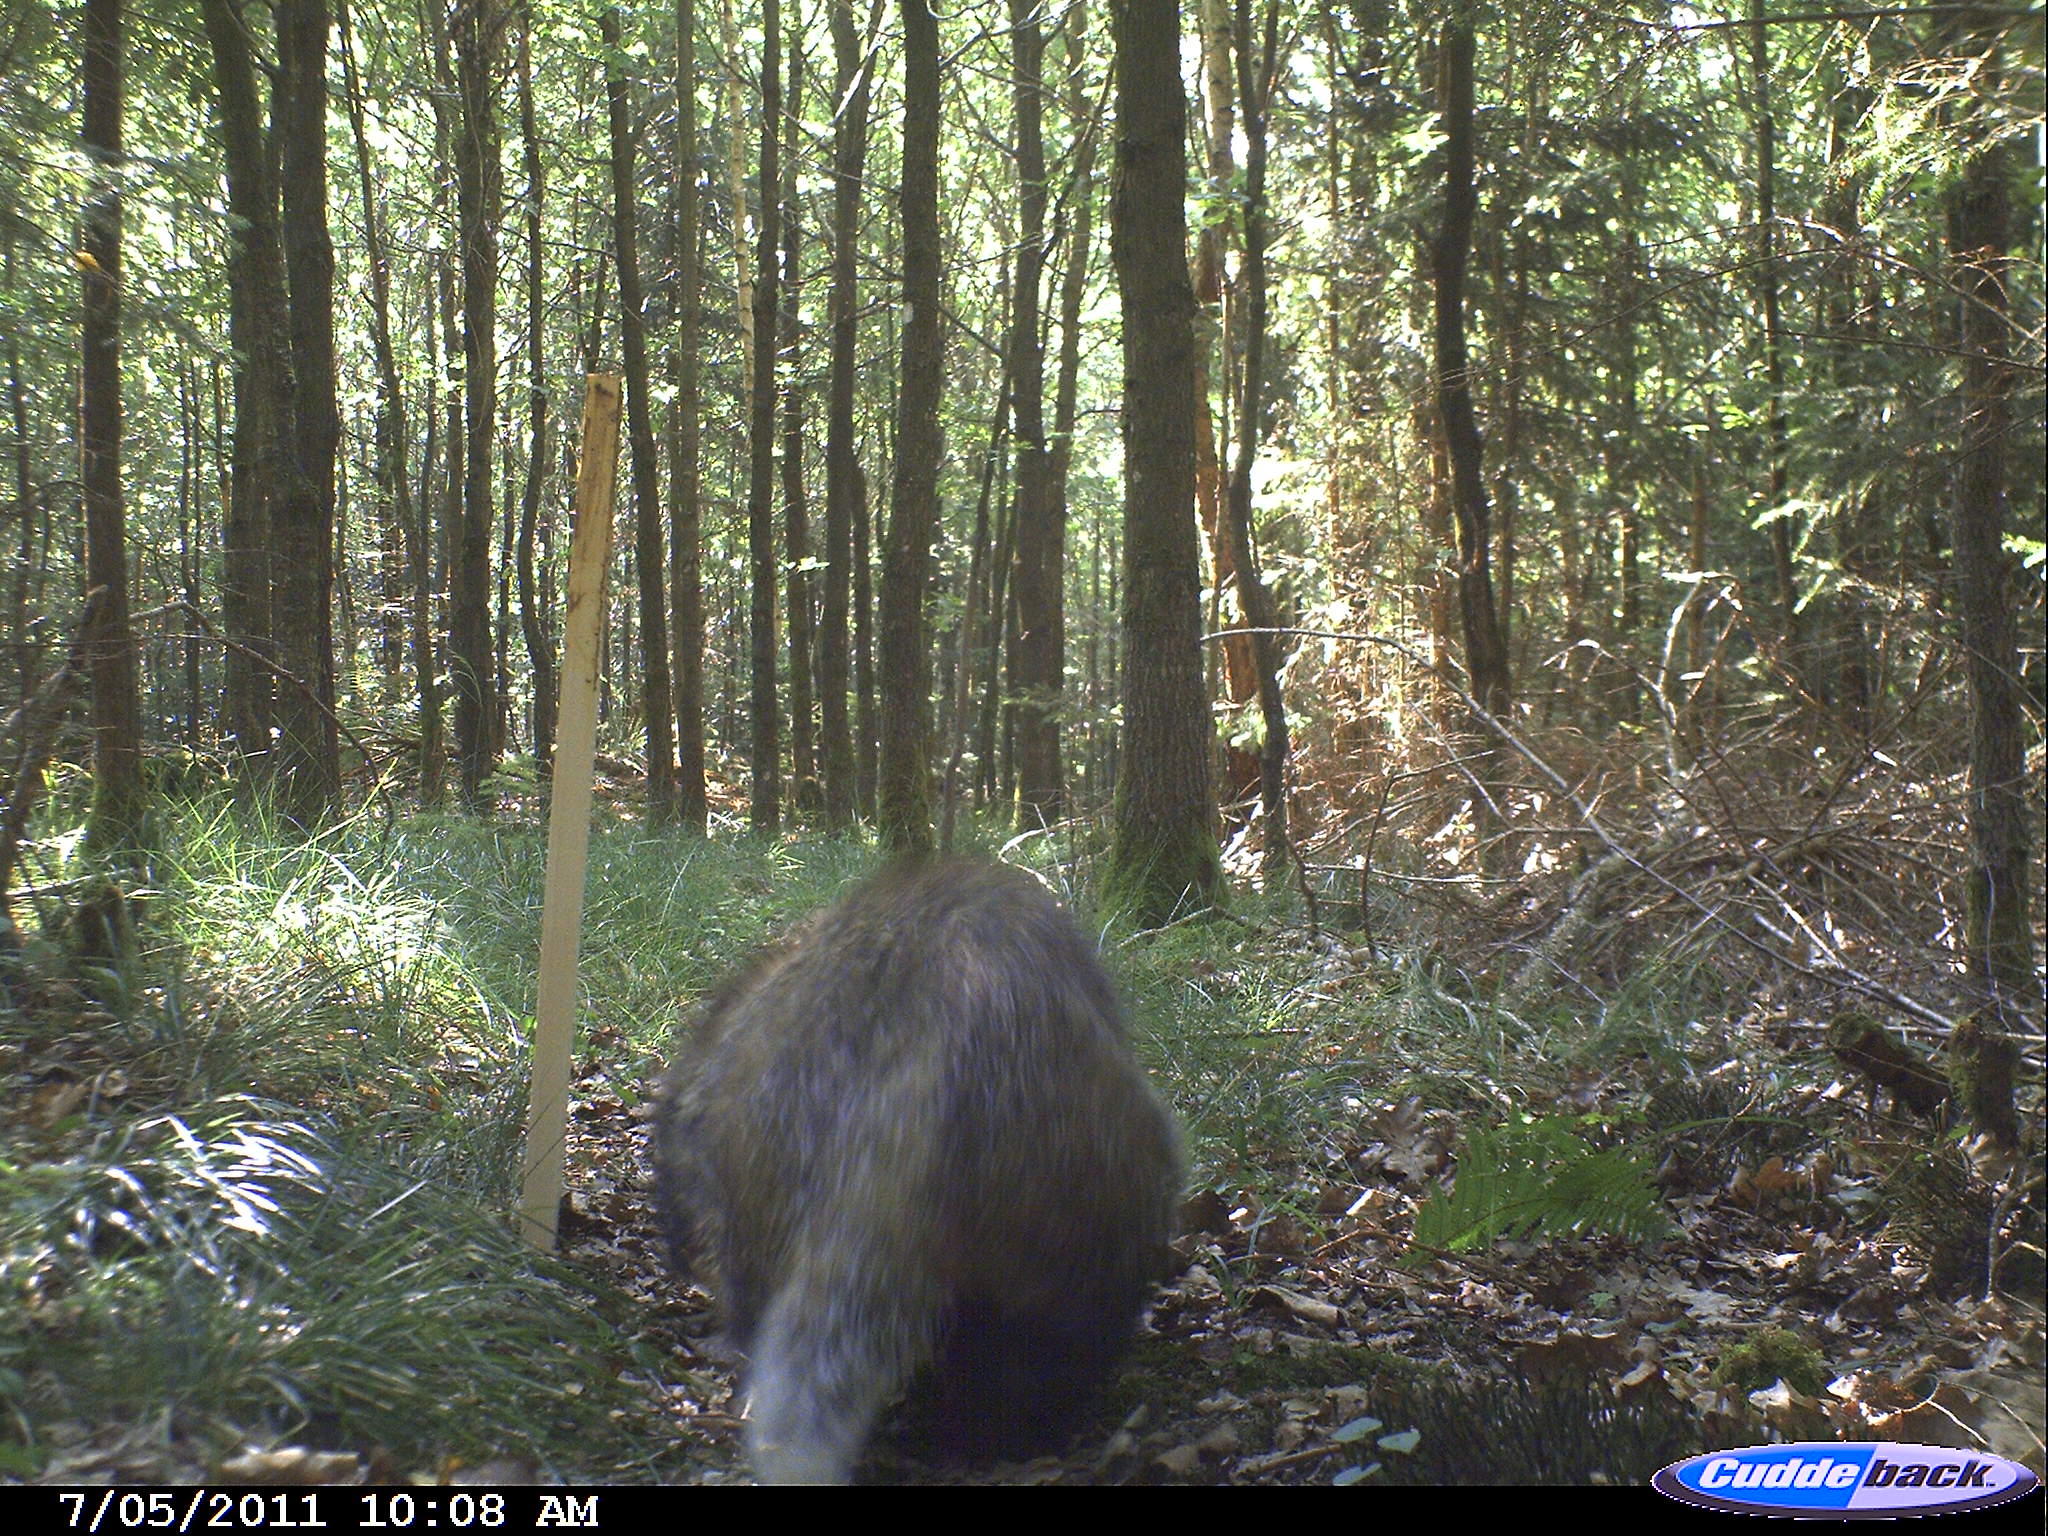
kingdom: Animalia
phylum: Chordata
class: Mammalia
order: Carnivora
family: Mustelidae
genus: Meles
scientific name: Meles meles
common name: Eurasian badger
